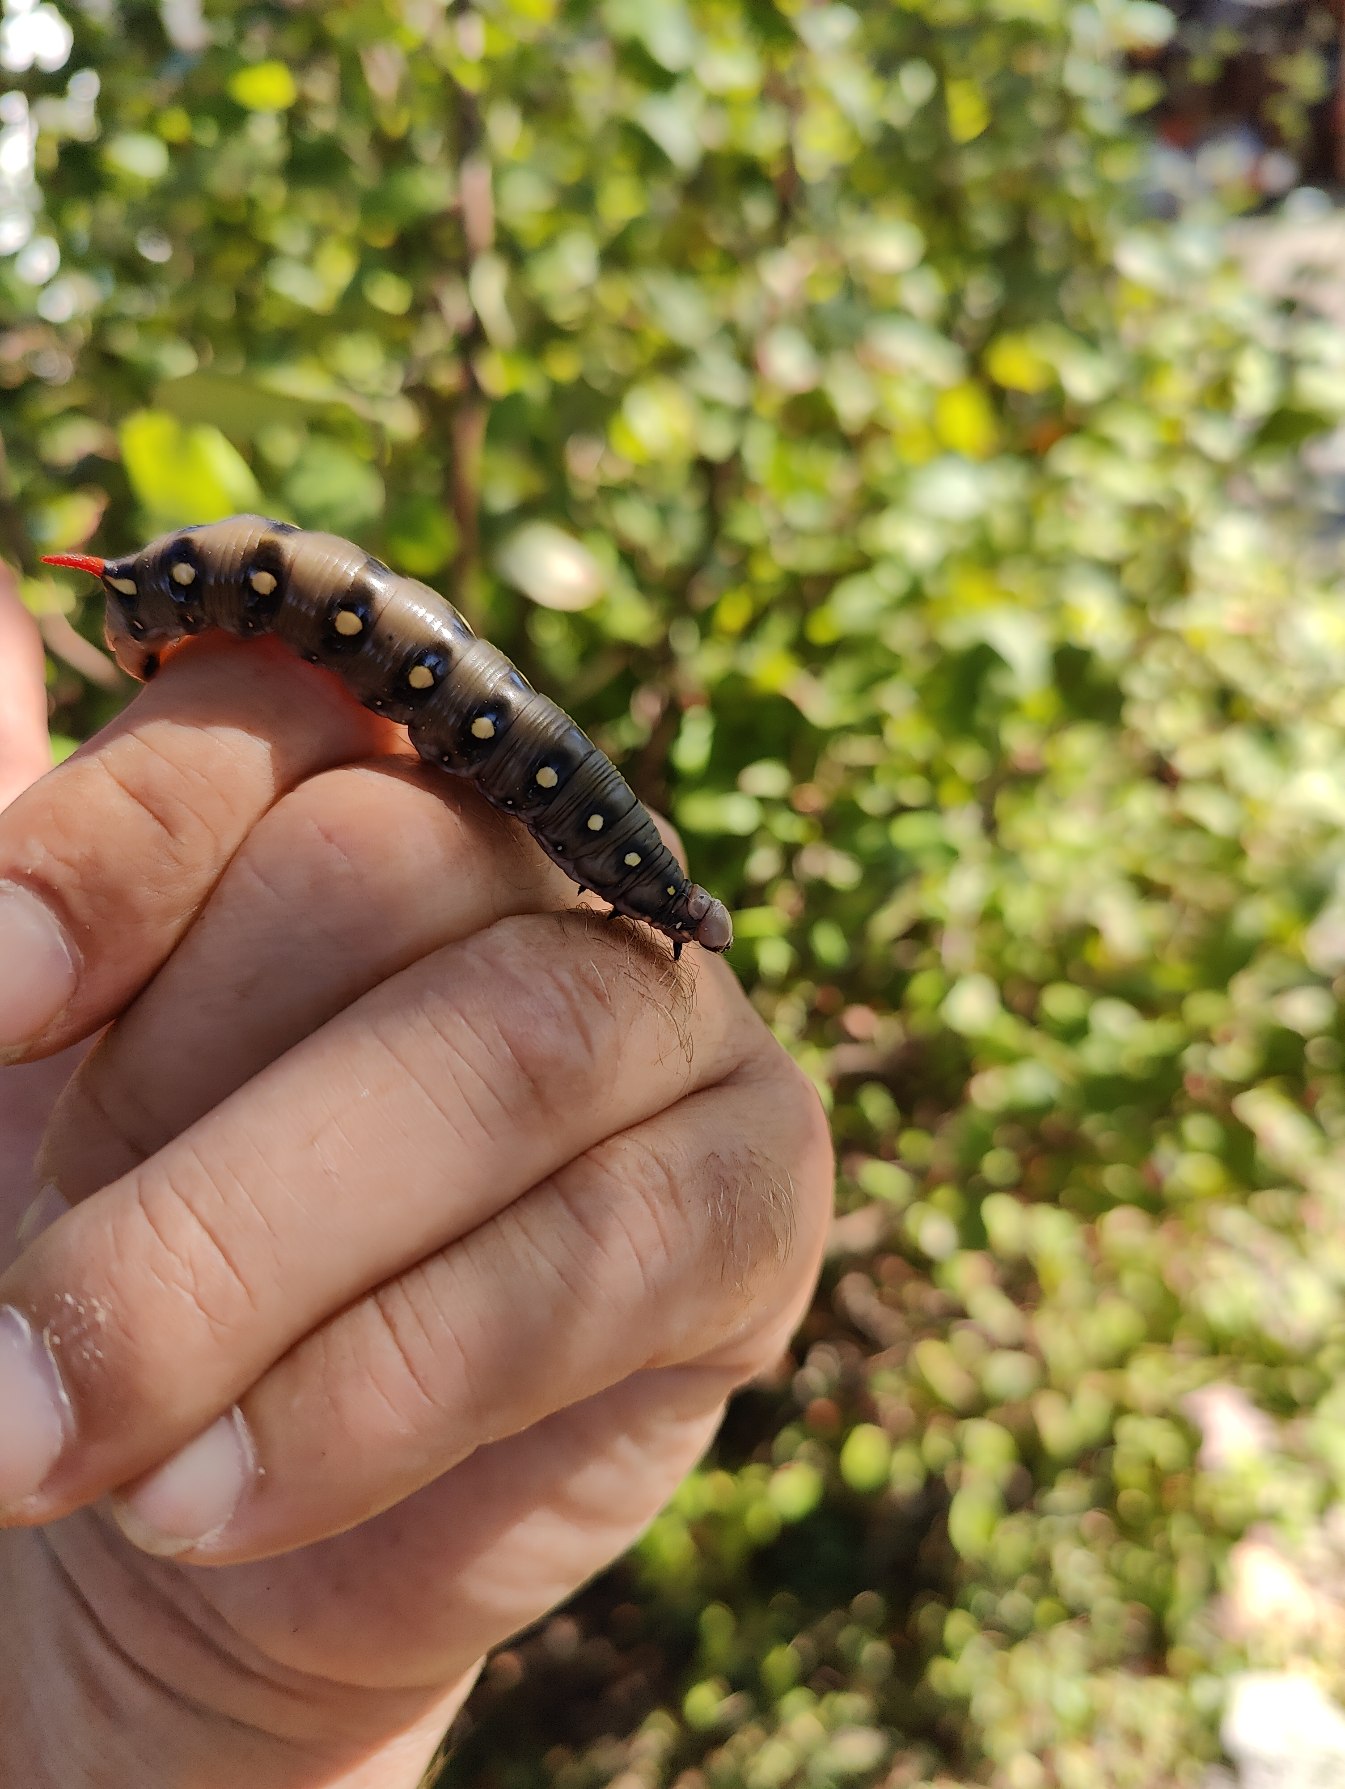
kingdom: Animalia
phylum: Arthropoda
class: Insecta
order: Lepidoptera
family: Sphingidae
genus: Hyles
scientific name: Hyles gallii
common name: Snerresværmer
